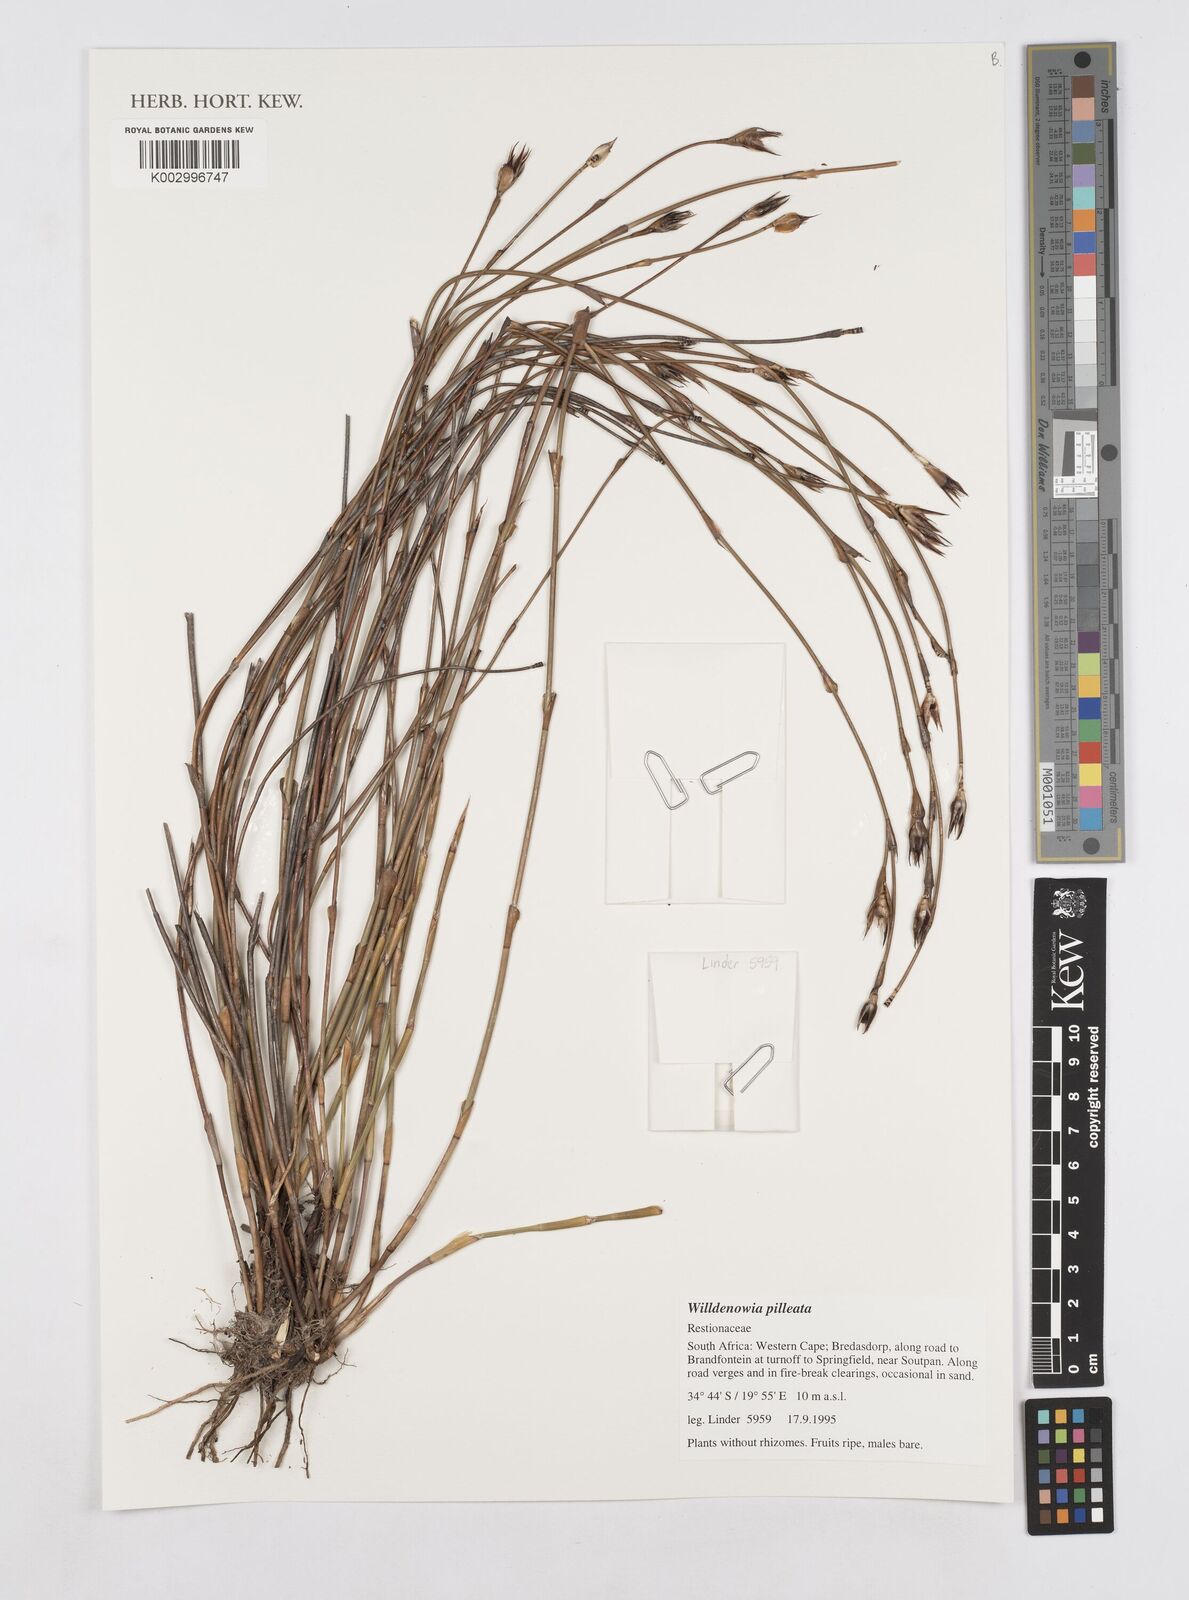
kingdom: Plantae
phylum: Tracheophyta
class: Liliopsida
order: Poales
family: Restionaceae
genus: Willdenowia
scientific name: Willdenowia pilleata
